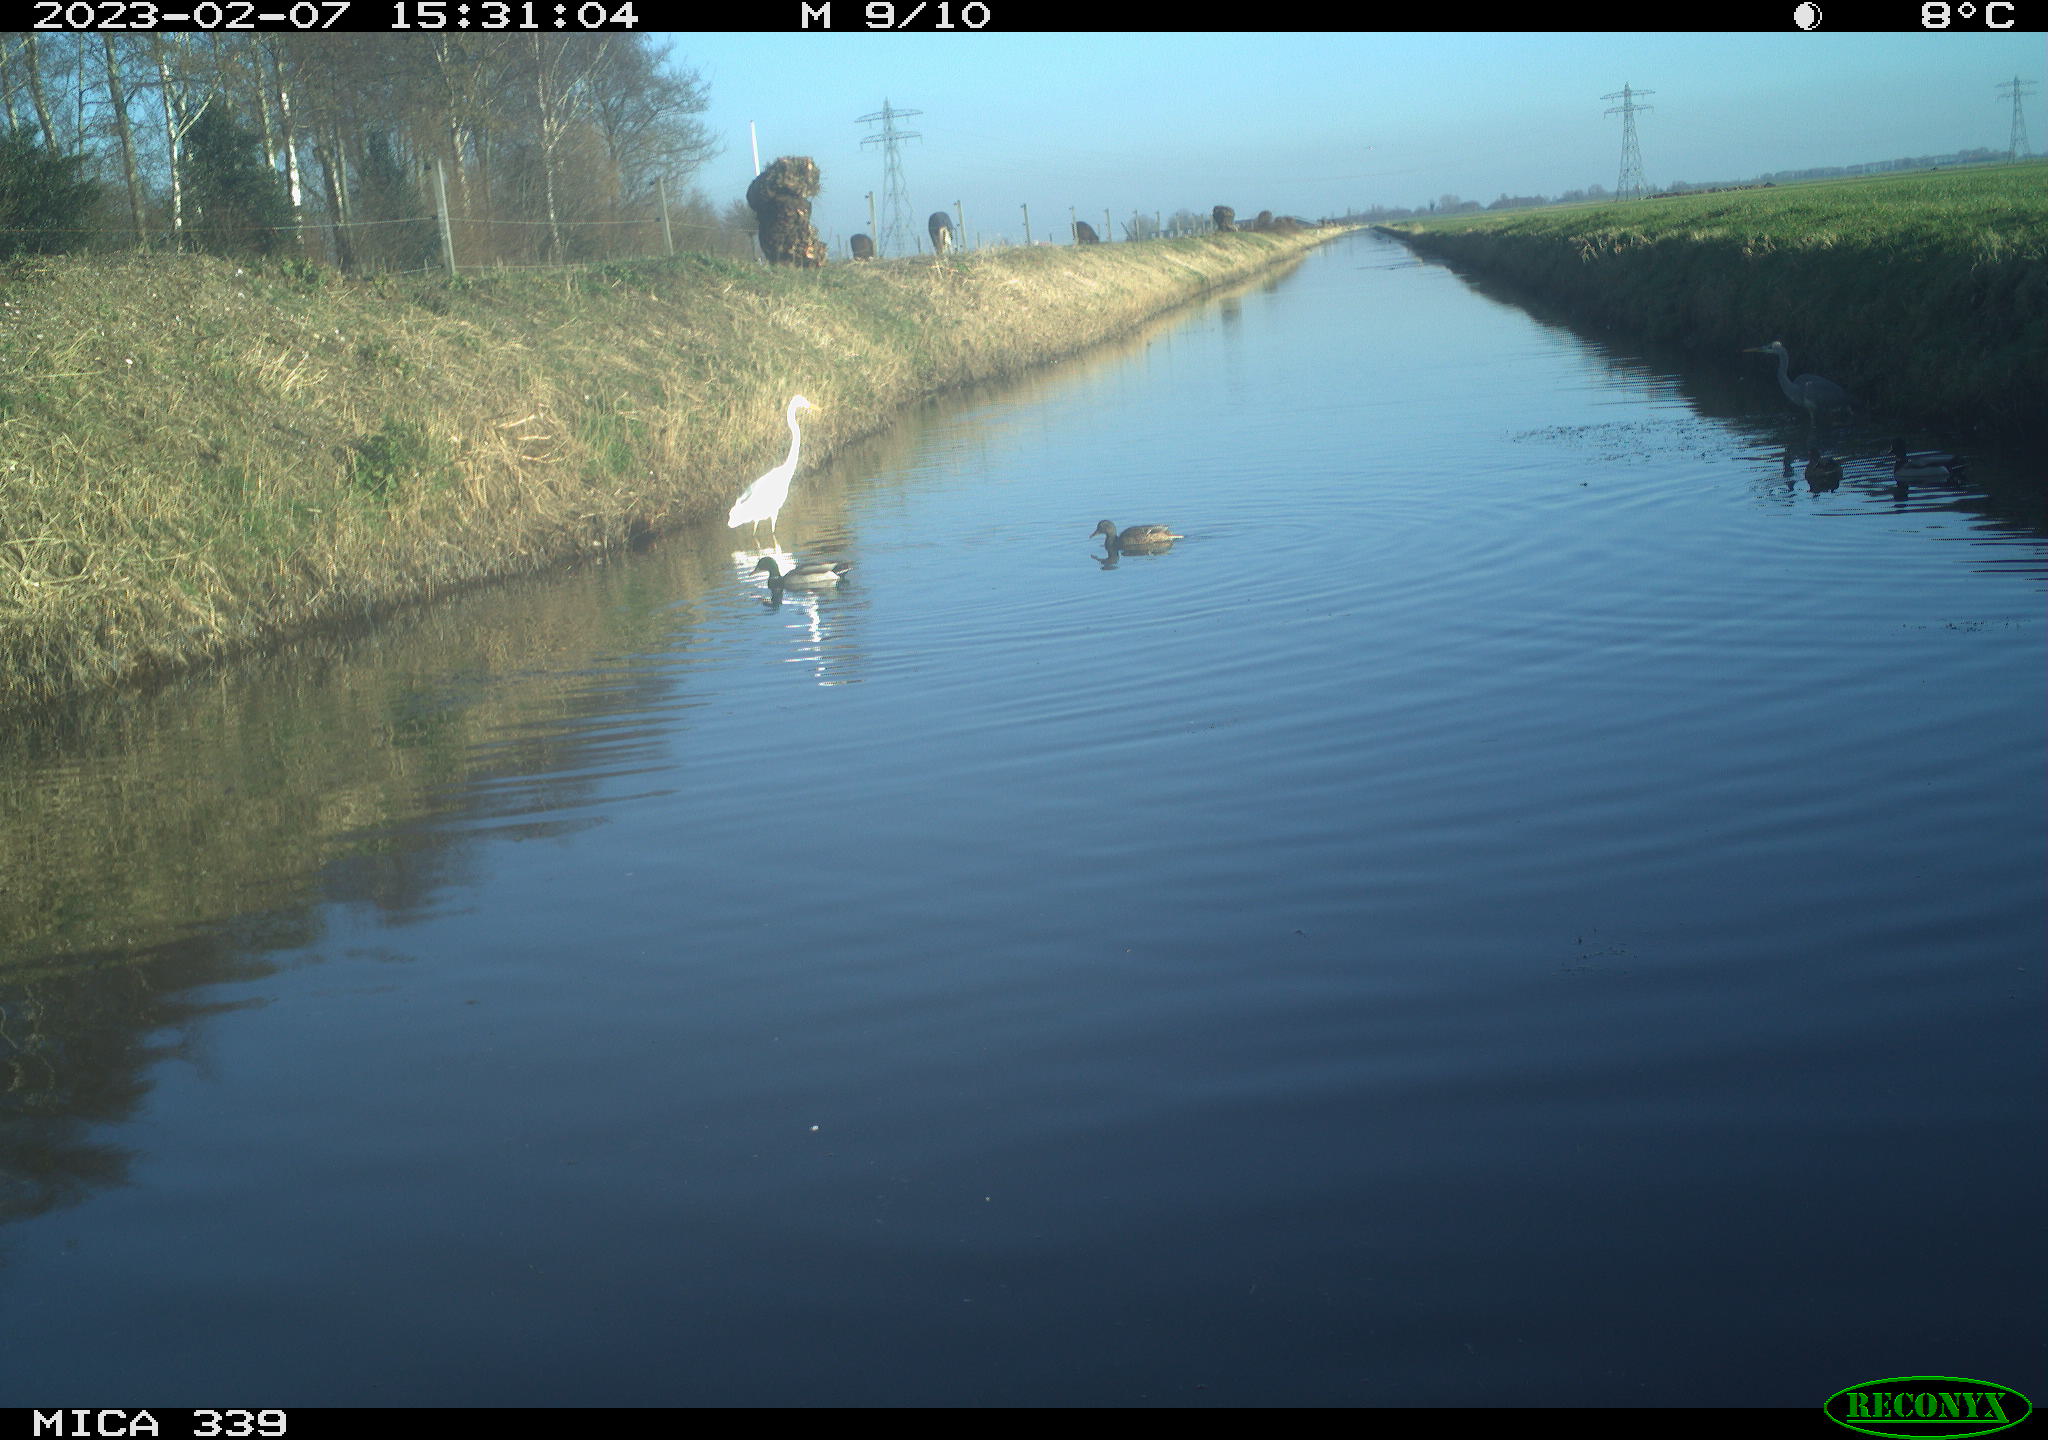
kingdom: Animalia
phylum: Chordata
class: Aves
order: Pelecaniformes
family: Ardeidae
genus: Ardea
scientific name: Ardea cinerea
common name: Grey heron
